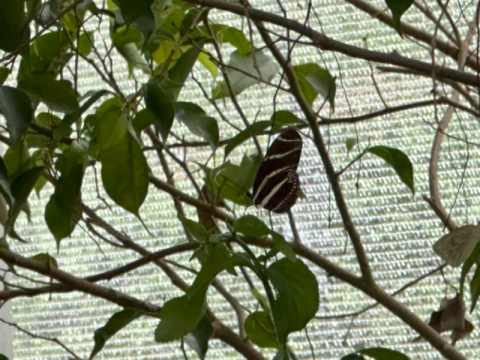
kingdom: Animalia
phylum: Arthropoda
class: Insecta
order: Lepidoptera
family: Nymphalidae
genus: Heliconius
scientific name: Heliconius charithonia
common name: Zebra Longwing
